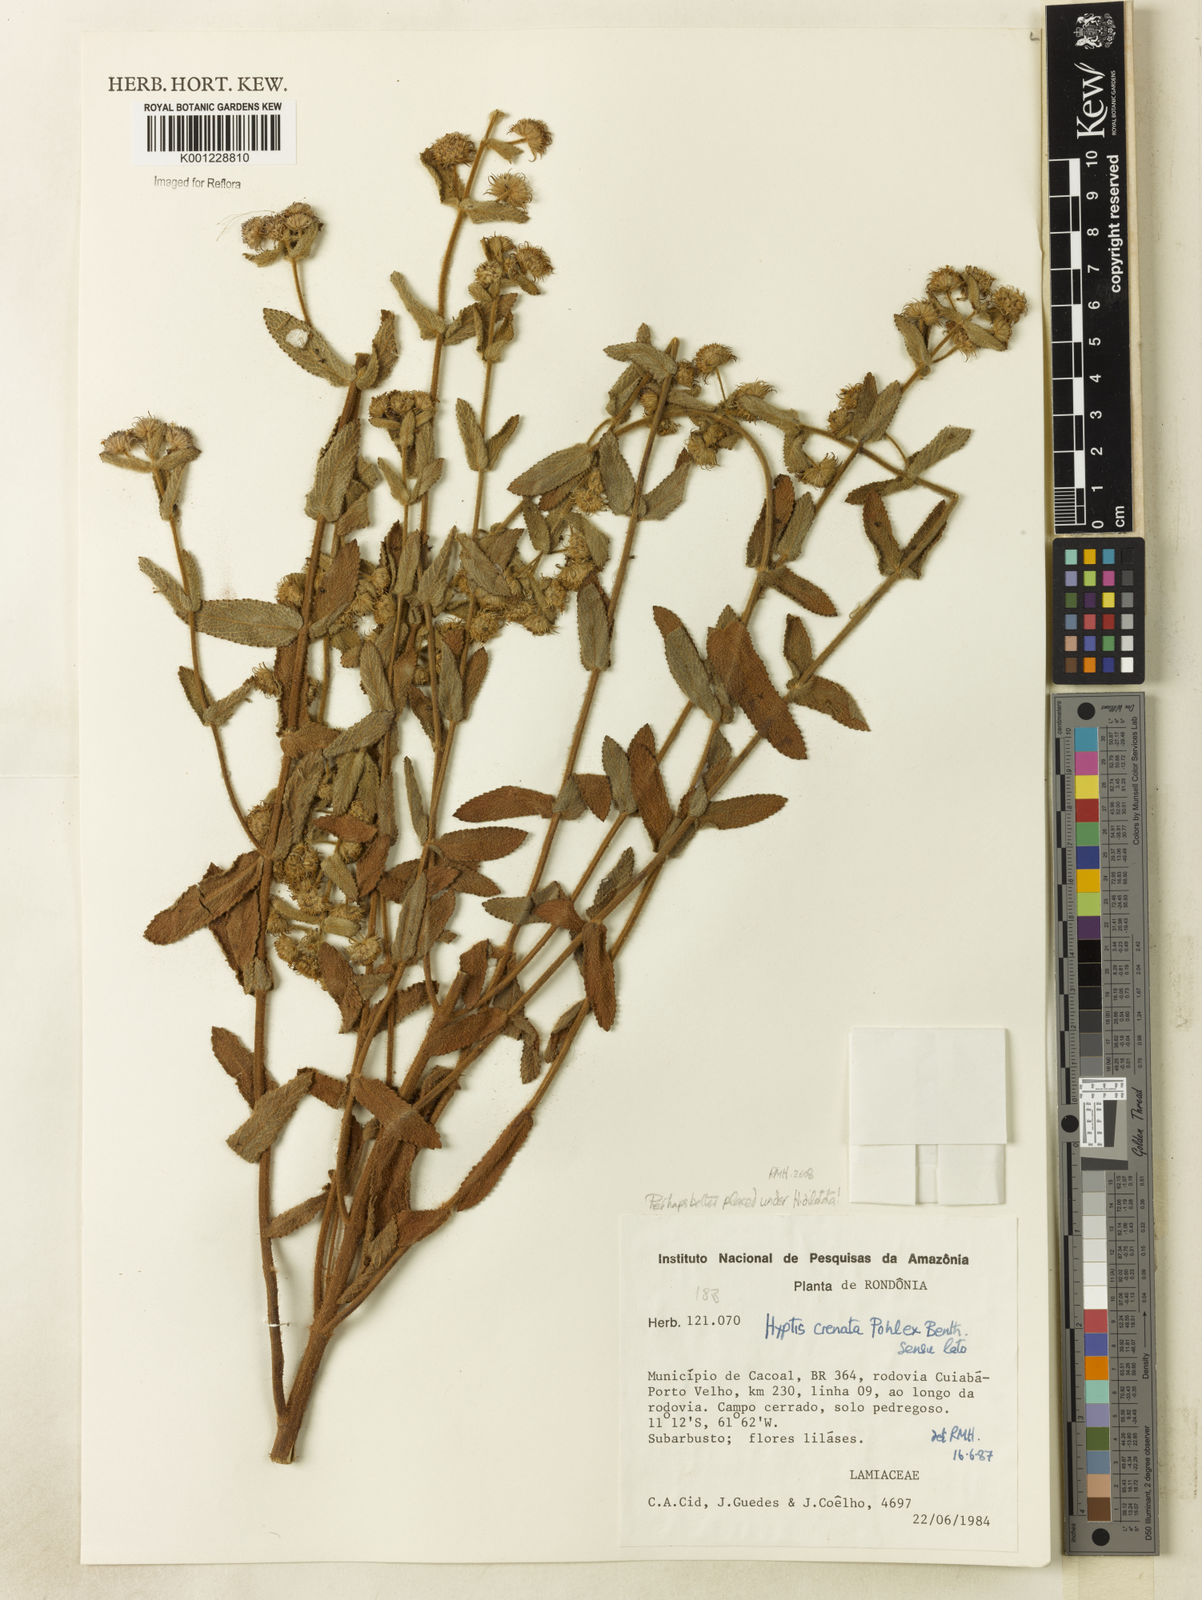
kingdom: Plantae
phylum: Tracheophyta
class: Magnoliopsida
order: Lamiales
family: Lamiaceae
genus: Hyptis
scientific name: Hyptis dilatata
